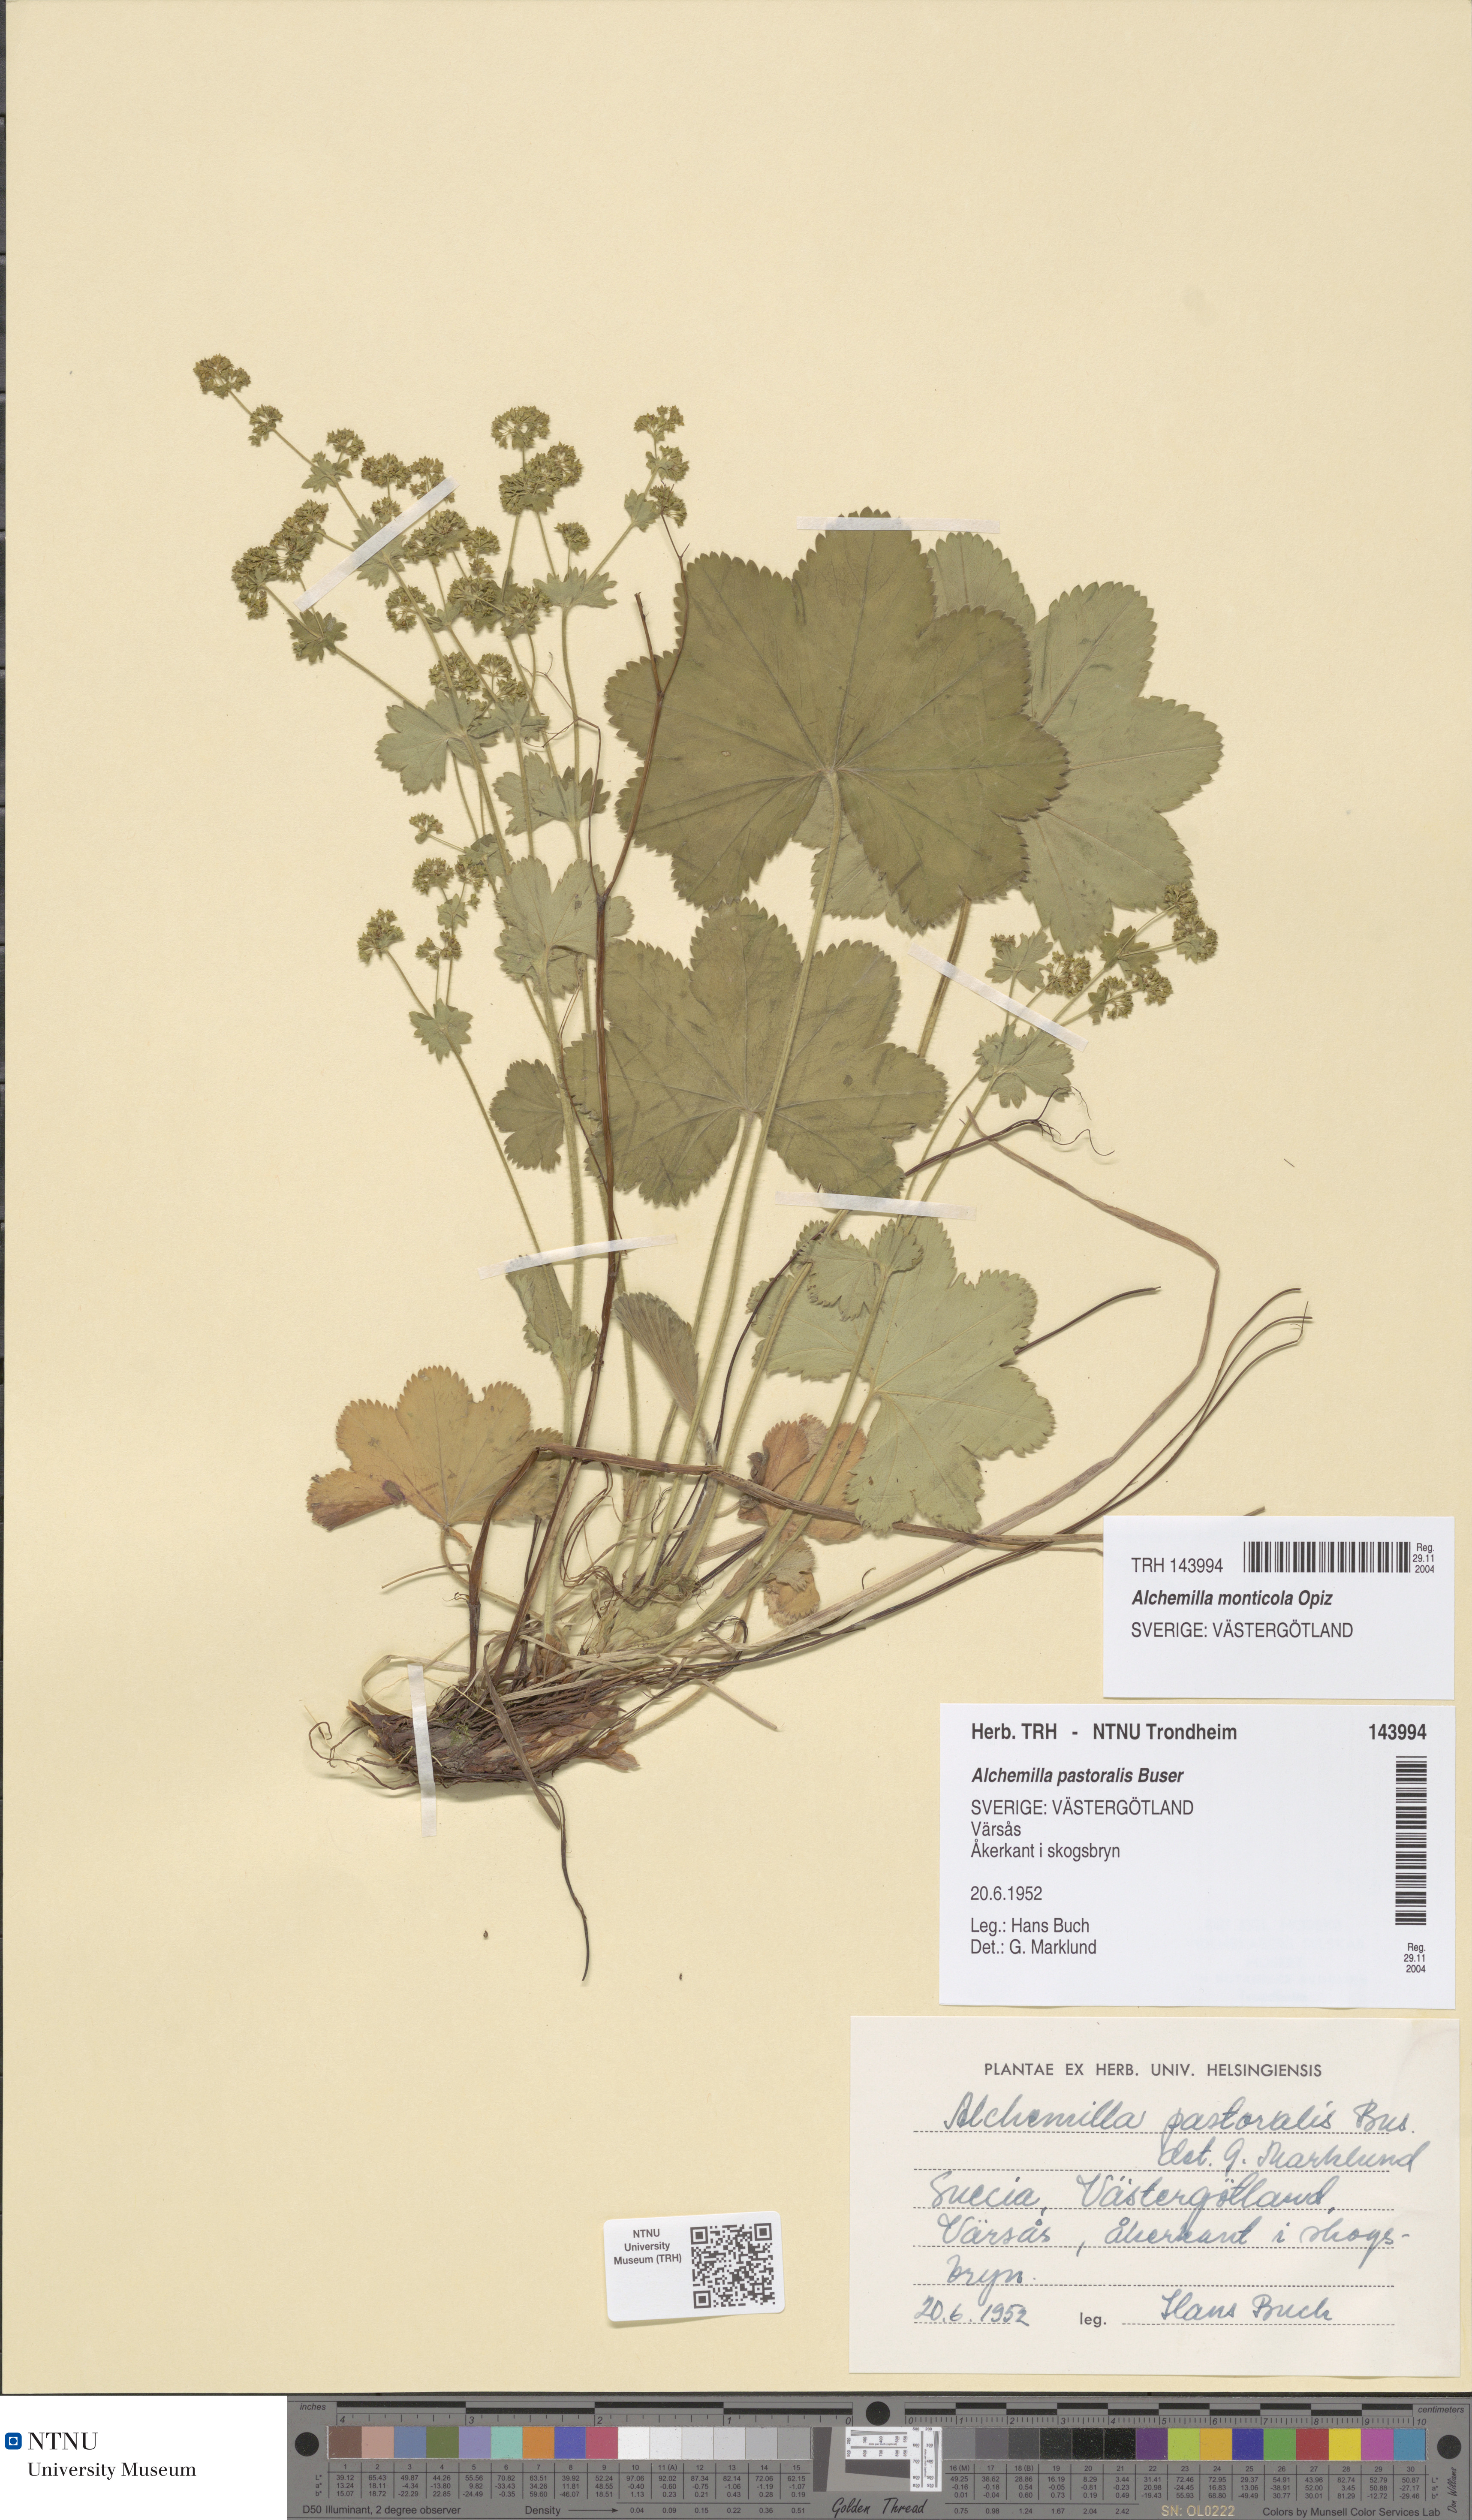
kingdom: Plantae
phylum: Tracheophyta
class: Magnoliopsida
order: Rosales
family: Rosaceae
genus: Alchemilla
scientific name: Alchemilla monticola
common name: Hairy lady's mantle
